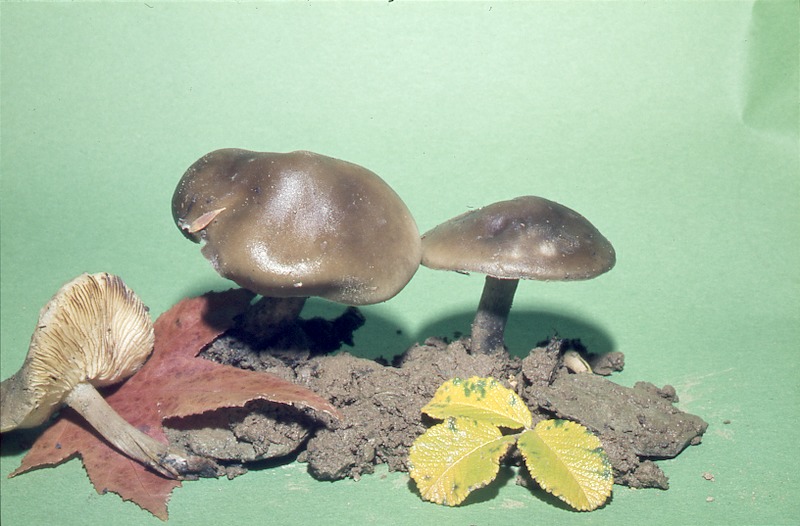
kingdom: Fungi
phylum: Basidiomycota
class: Agaricomycetes
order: Agaricales
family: Tricholomataceae
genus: Melanoleuca
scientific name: Melanoleuca brevipes
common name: Stunted cavalier
